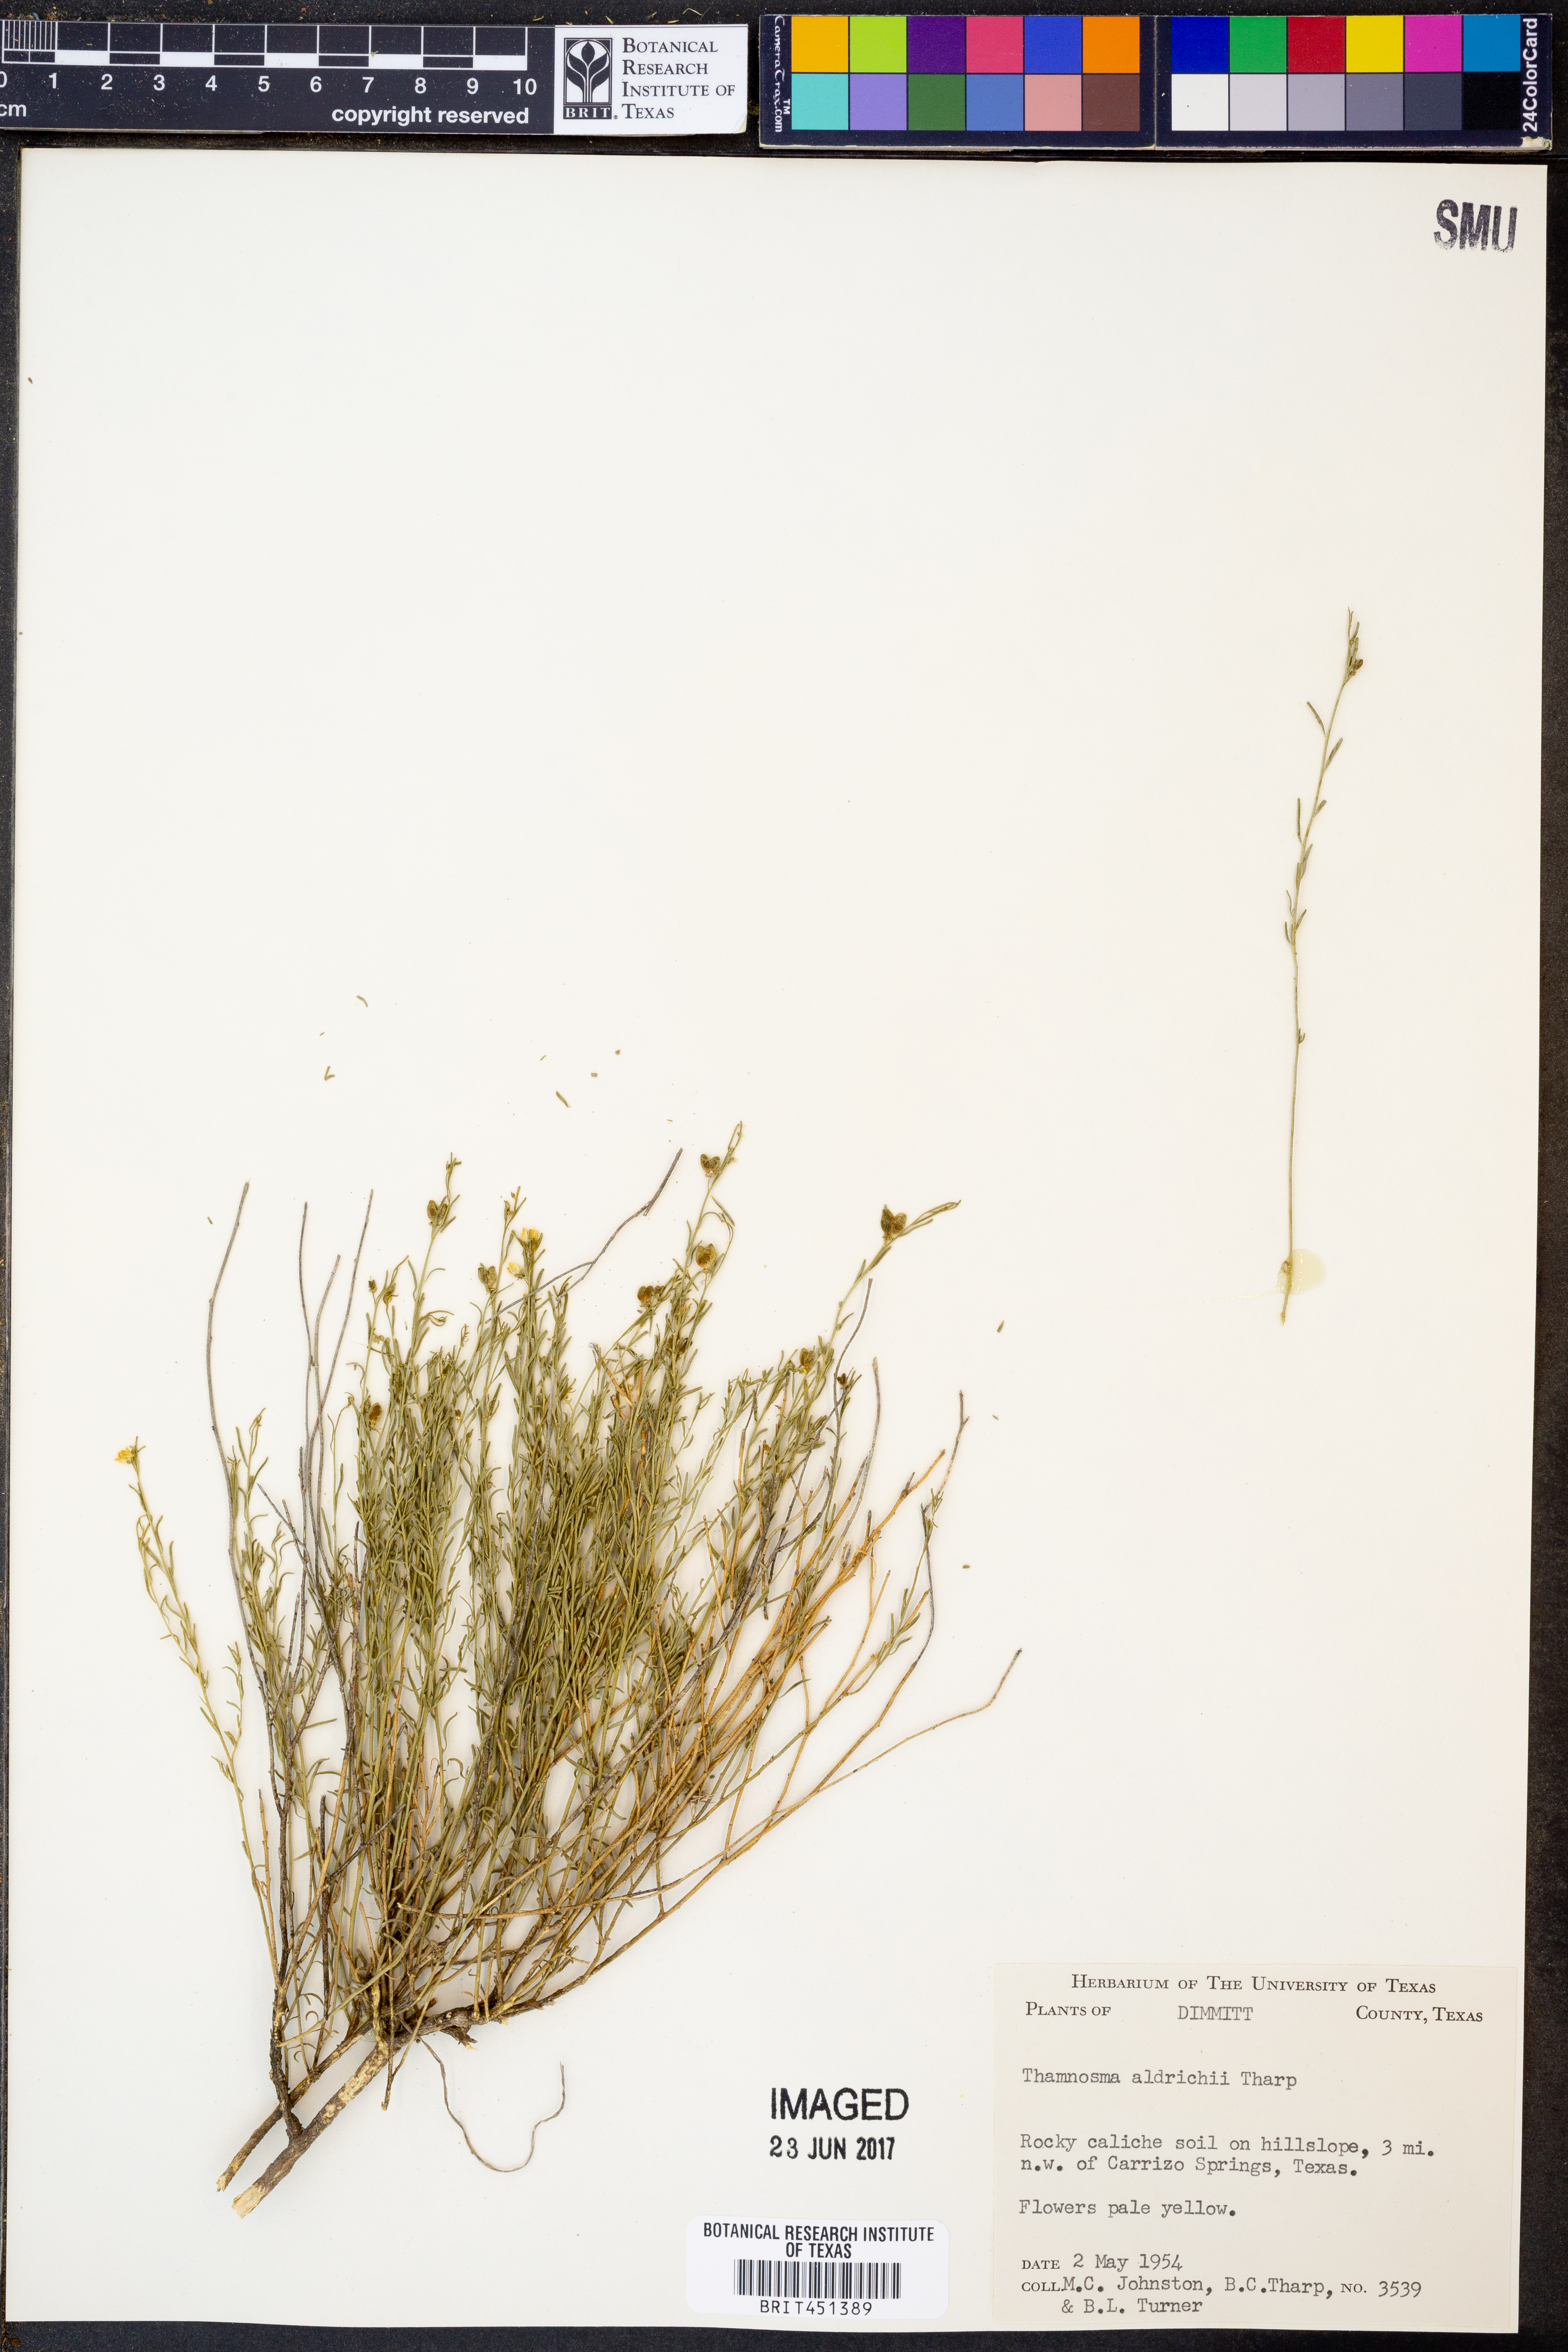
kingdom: Plantae
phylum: Tracheophyta
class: Magnoliopsida
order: Sapindales
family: Rutaceae
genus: Thamnosma
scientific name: Thamnosma texana
